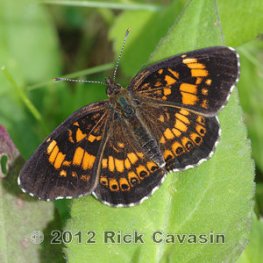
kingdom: Animalia
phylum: Arthropoda
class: Insecta
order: Lepidoptera
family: Nymphalidae
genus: Chlosyne
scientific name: Chlosyne nycteis
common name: Silvery Checkerspot
